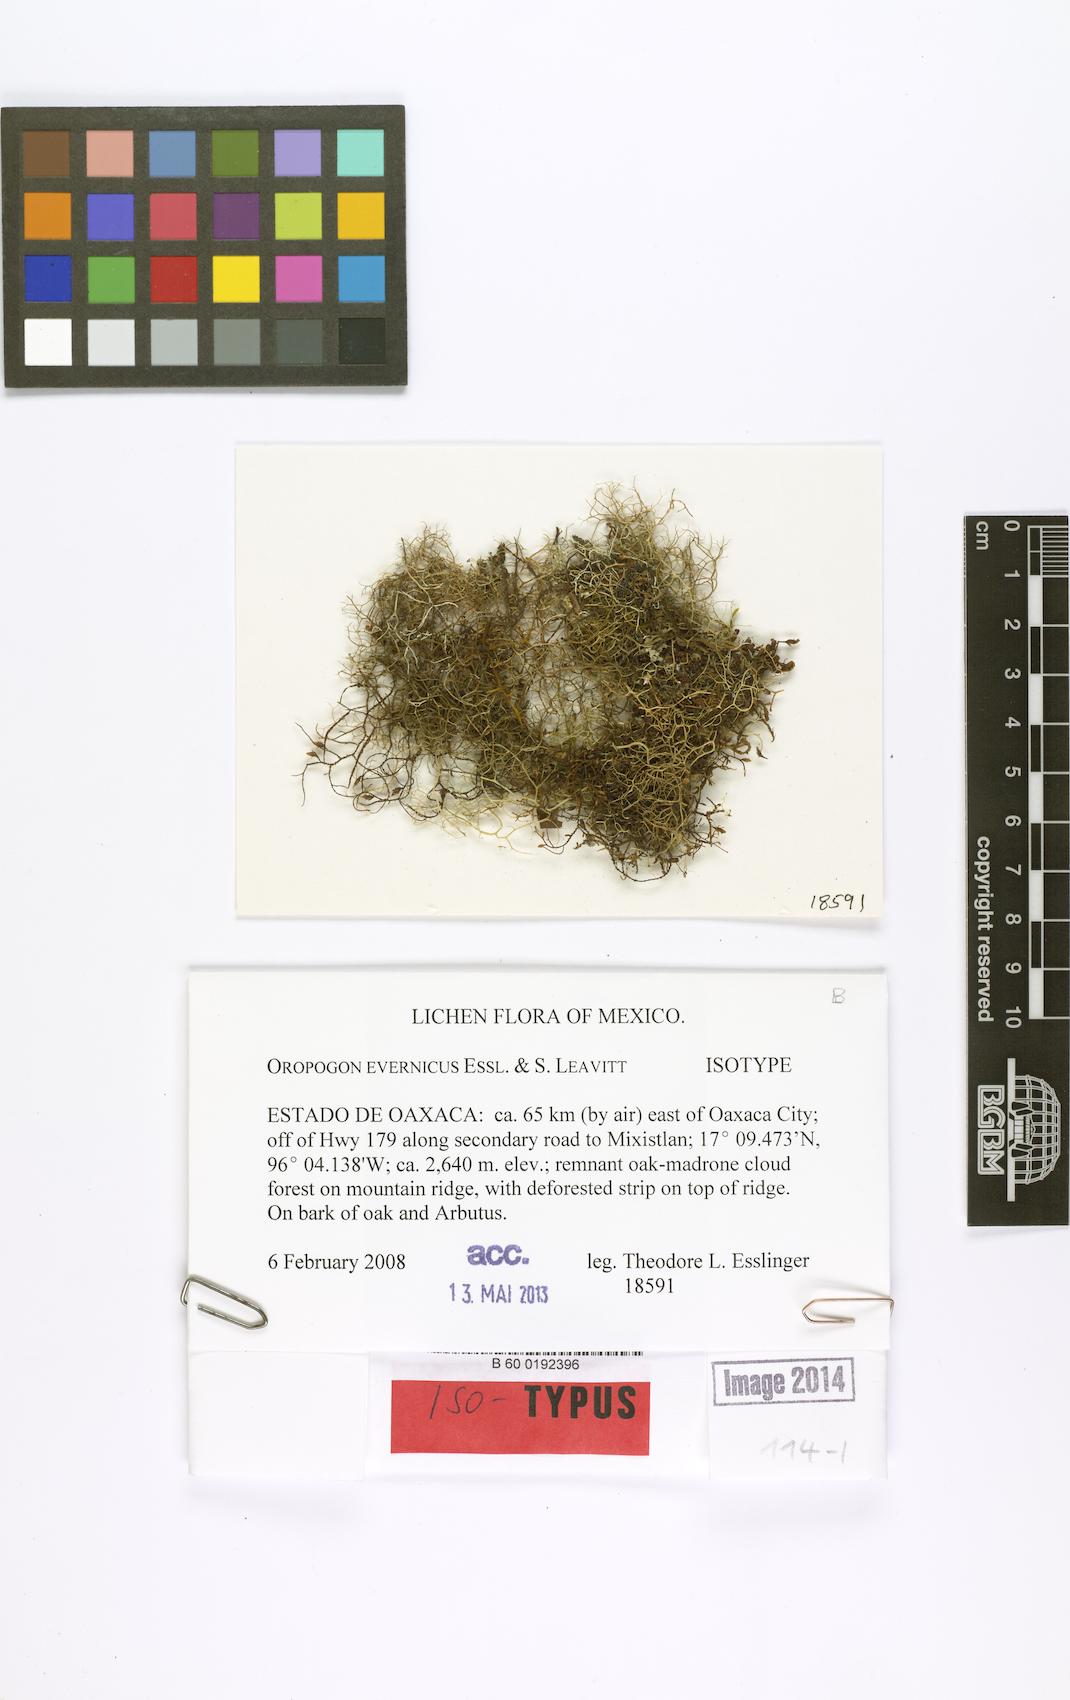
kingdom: Fungi
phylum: Ascomycota
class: Lecanoromycetes
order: Lecanorales
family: Parmeliaceae
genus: Oropogon
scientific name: Oropogon evernicus
